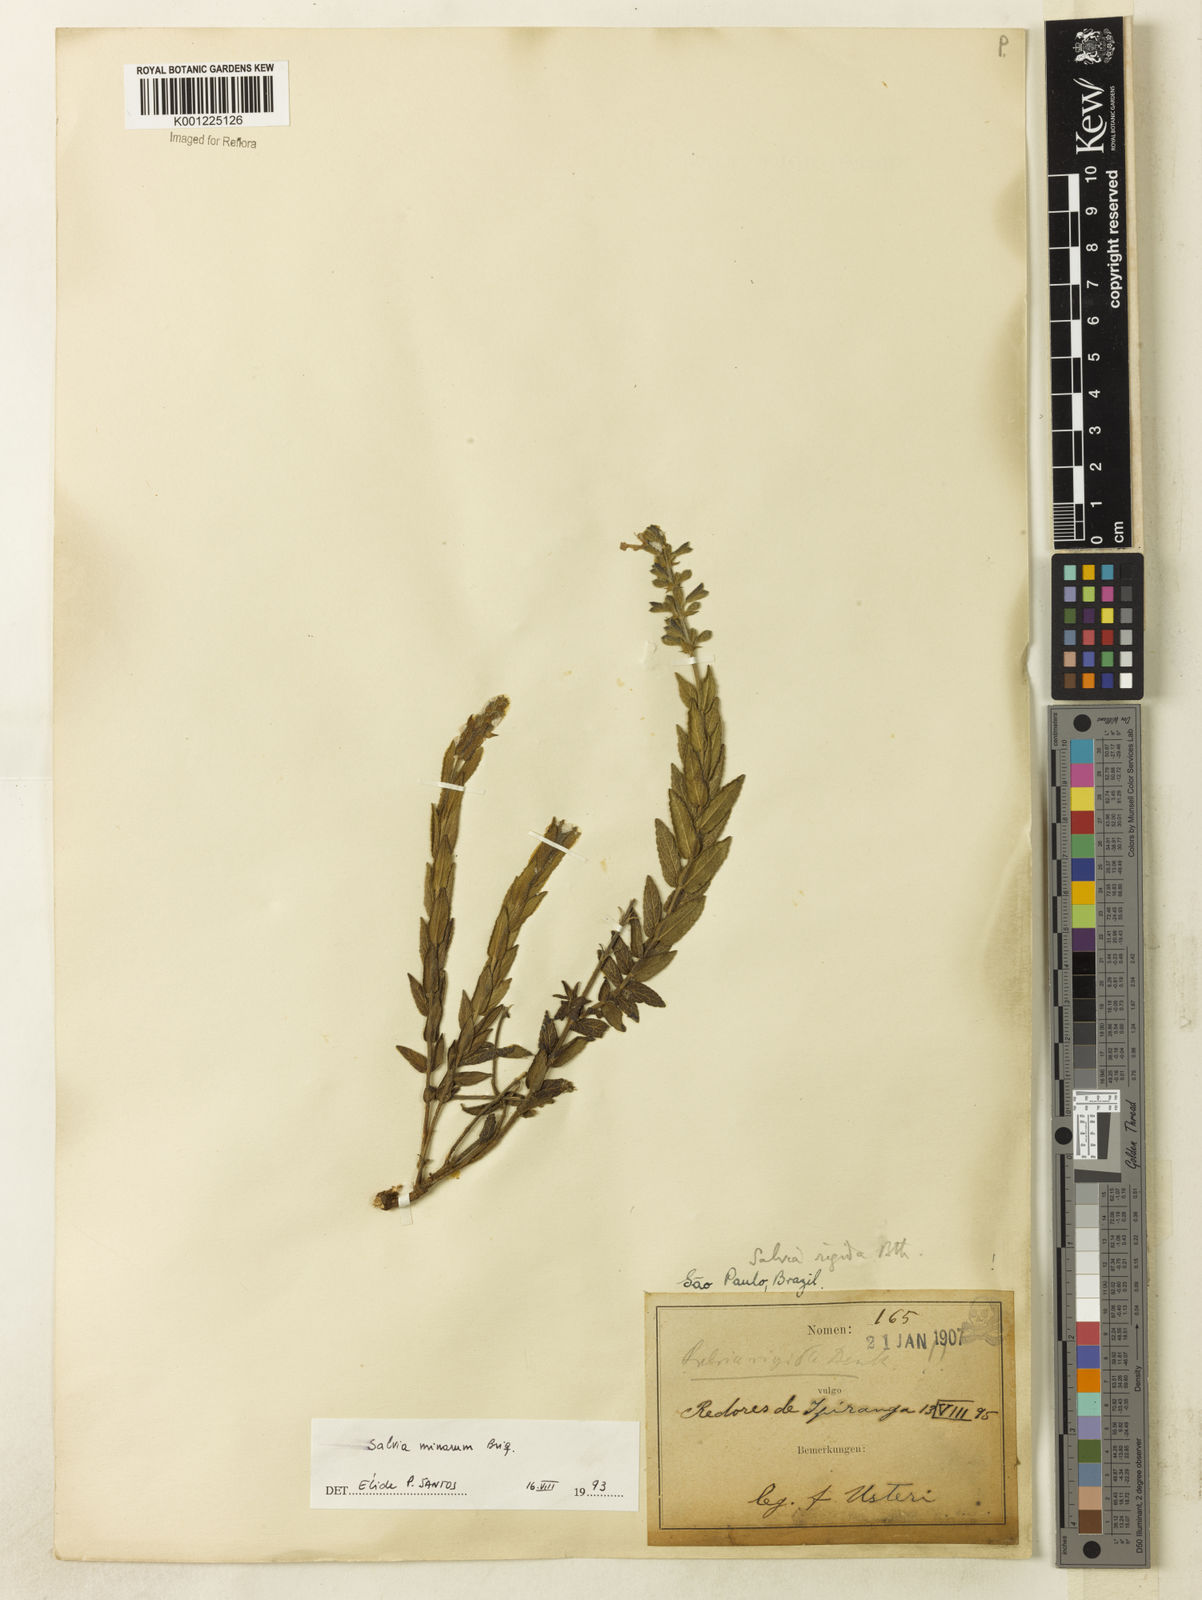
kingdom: Plantae
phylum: Tracheophyta
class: Magnoliopsida
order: Lamiales
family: Lamiaceae
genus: Salvia
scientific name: Salvia minarum
